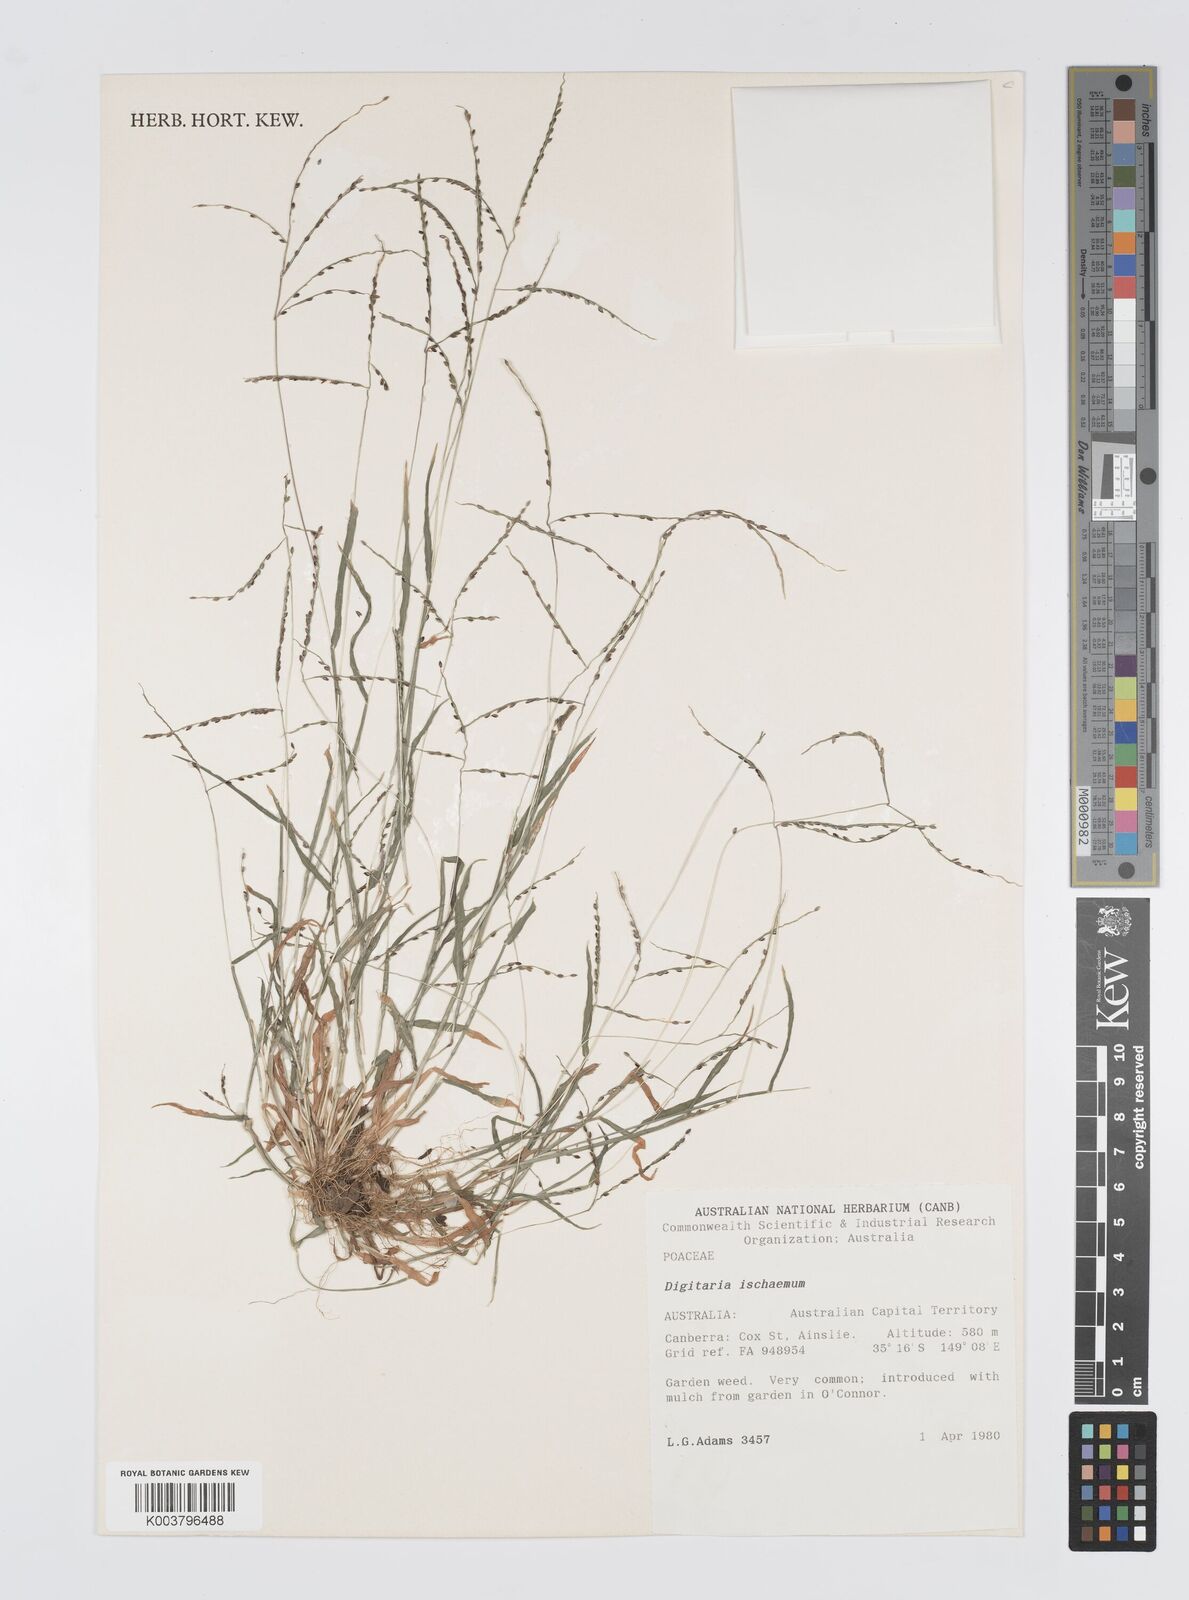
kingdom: Plantae
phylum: Tracheophyta
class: Liliopsida
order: Poales
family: Poaceae
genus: Digitaria
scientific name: Digitaria ischaemum
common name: Smooth crabgrass
